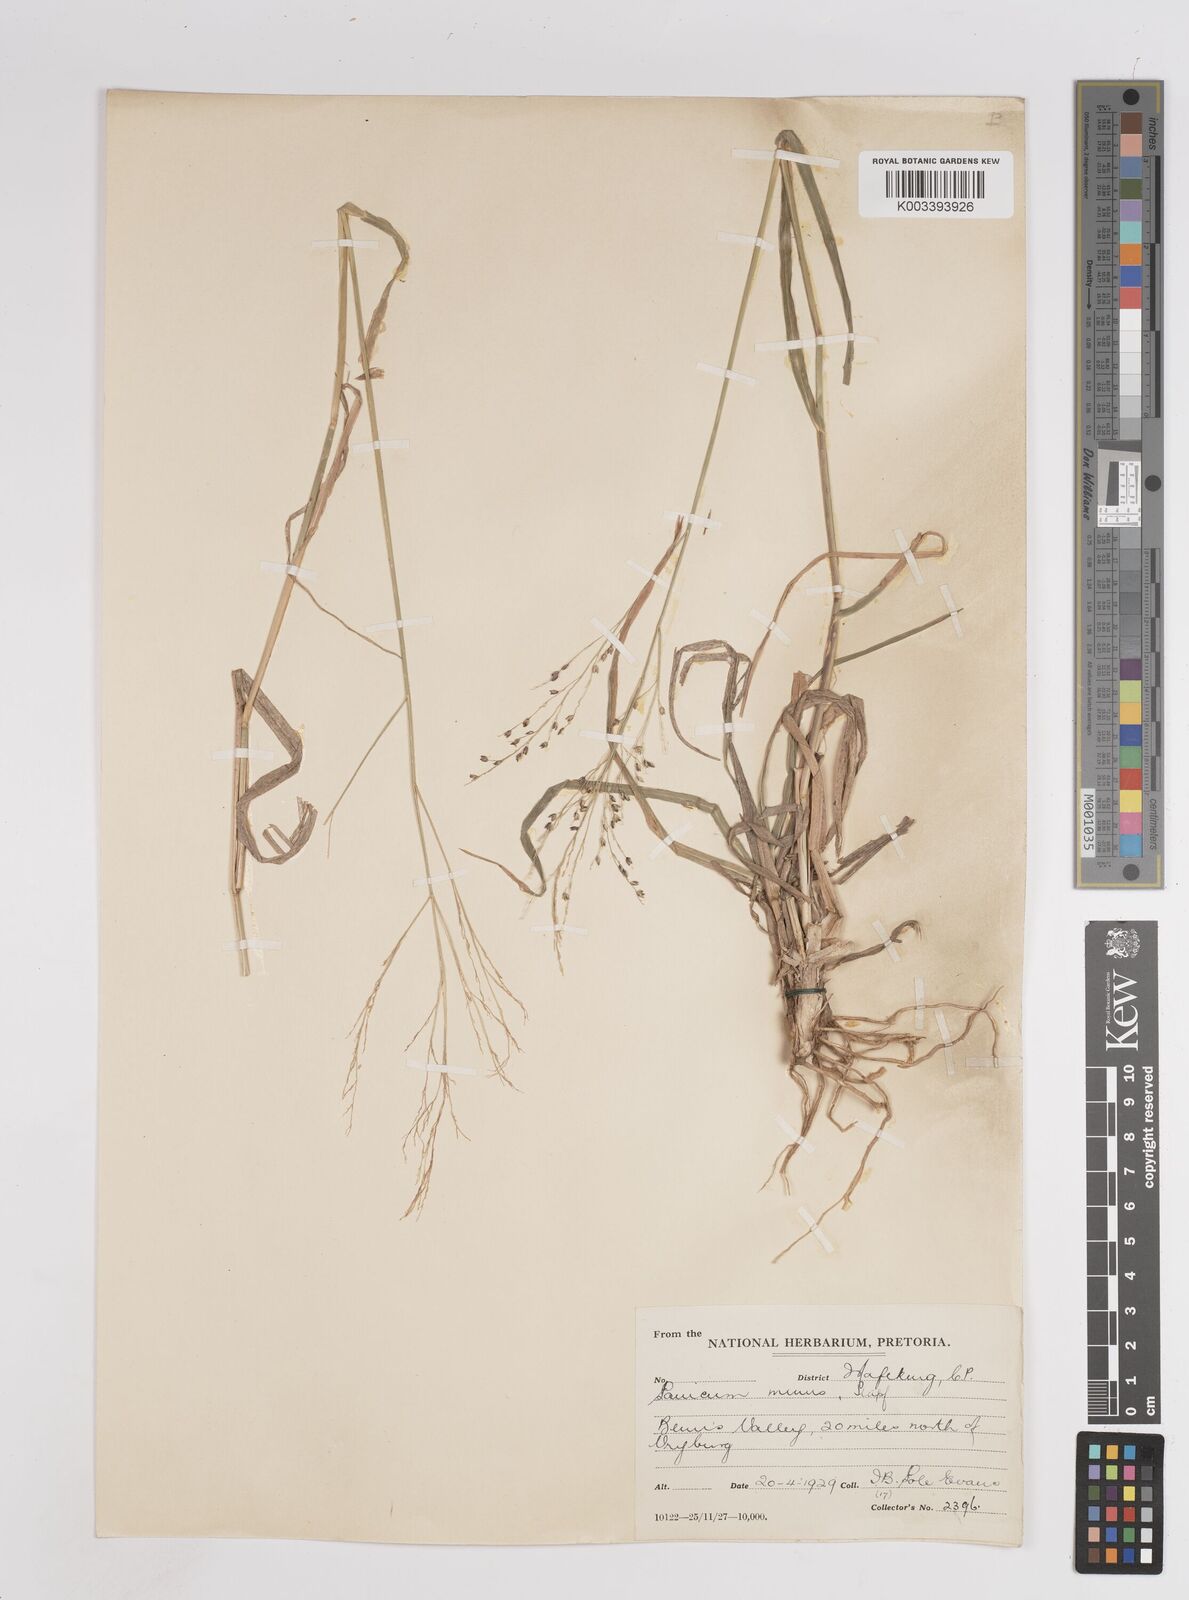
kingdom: Plantae
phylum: Tracheophyta
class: Liliopsida
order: Poales
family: Poaceae
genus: Panicum
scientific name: Panicum
